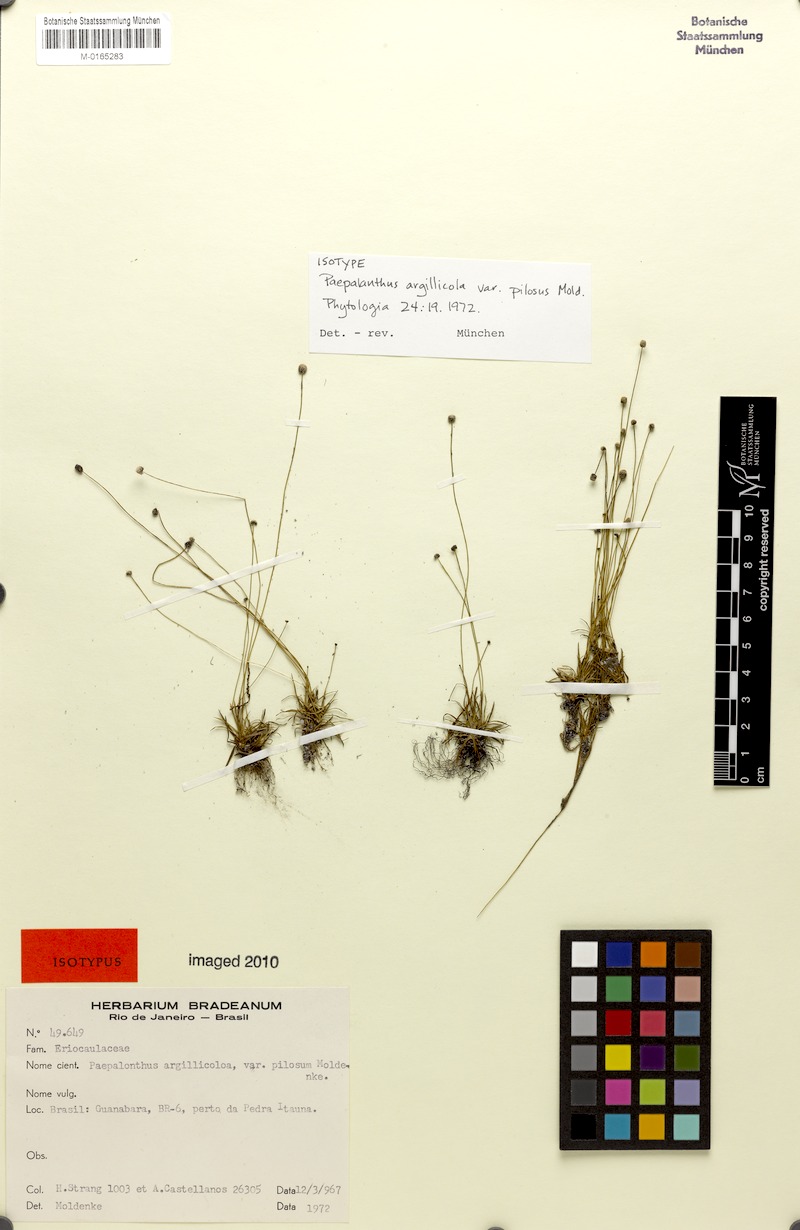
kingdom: Plantae
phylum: Tracheophyta
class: Liliopsida
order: Poales
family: Eriocaulaceae
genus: Paepalanthus
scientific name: Paepalanthus argillicola
